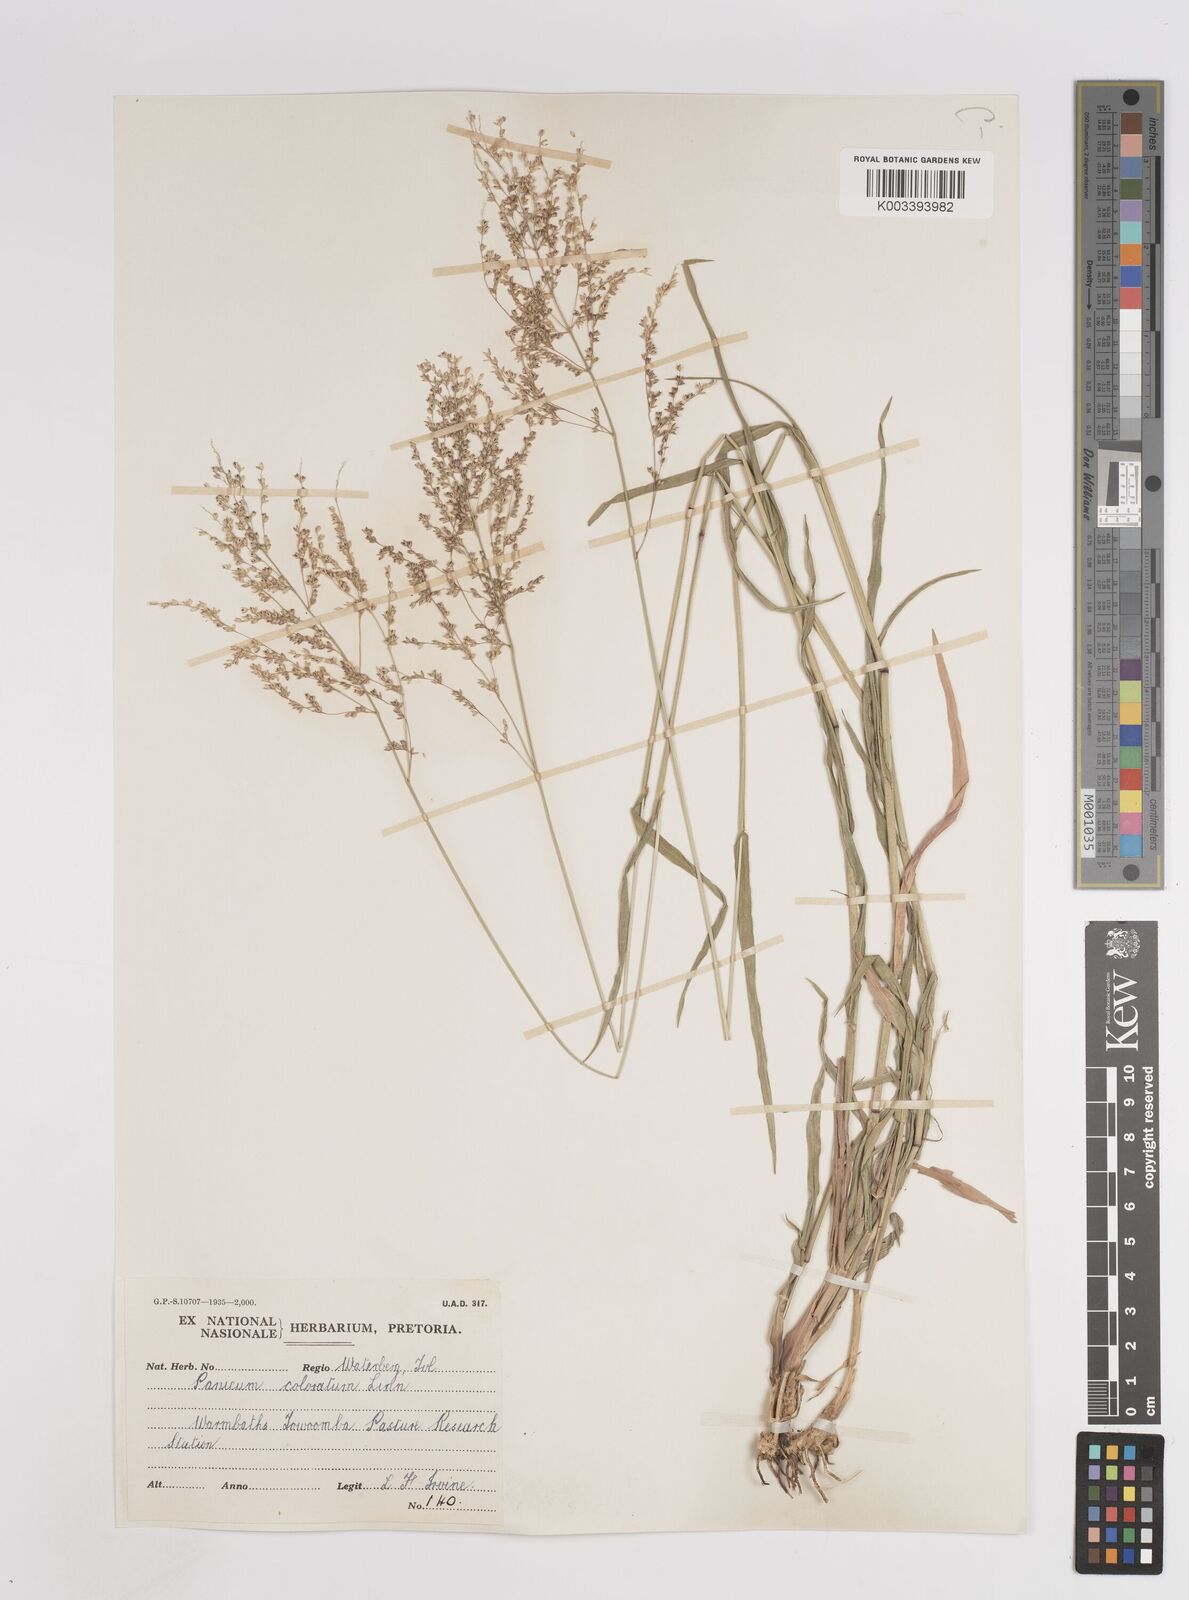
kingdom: Plantae
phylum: Tracheophyta
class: Liliopsida
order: Poales
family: Poaceae
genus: Panicum
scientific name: Panicum coloratum
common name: Kleingrass
